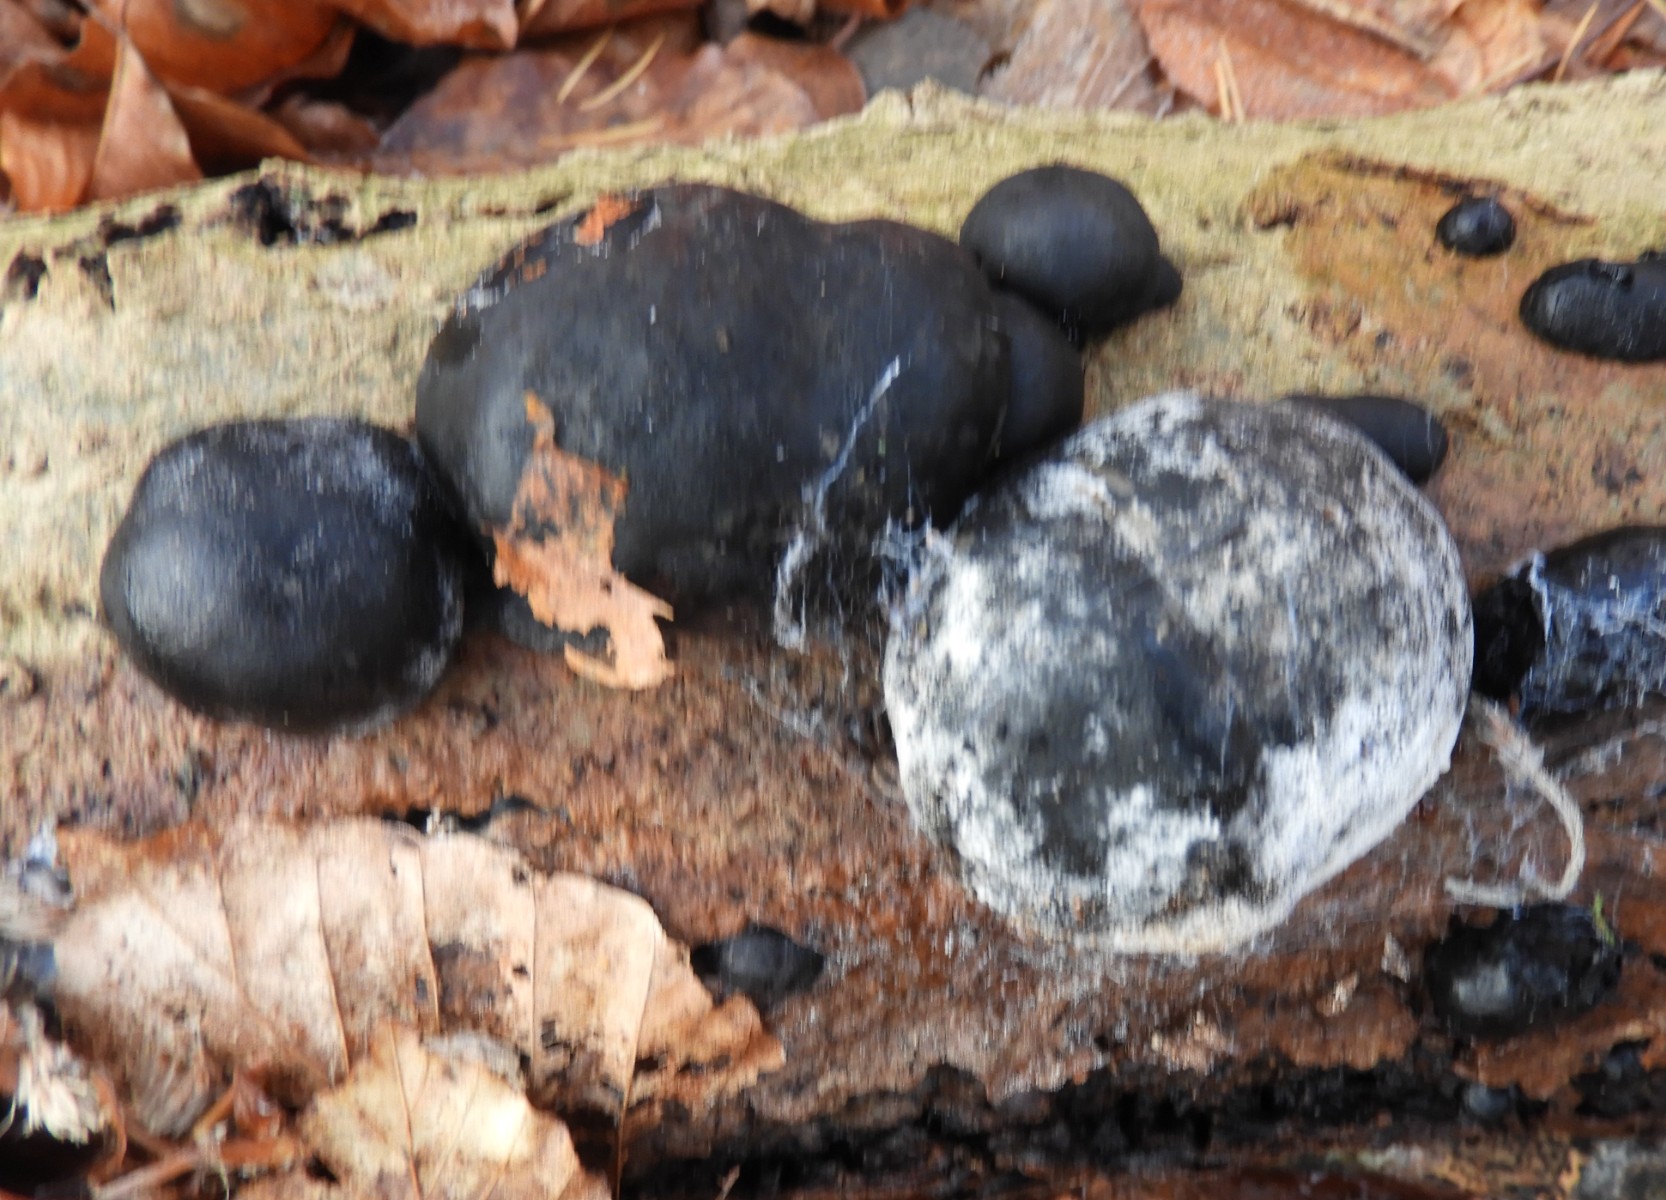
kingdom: Fungi
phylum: Ascomycota
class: Sordariomycetes
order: Xylariales
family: Hypoxylaceae
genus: Daldinia
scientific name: Daldinia concentrica
